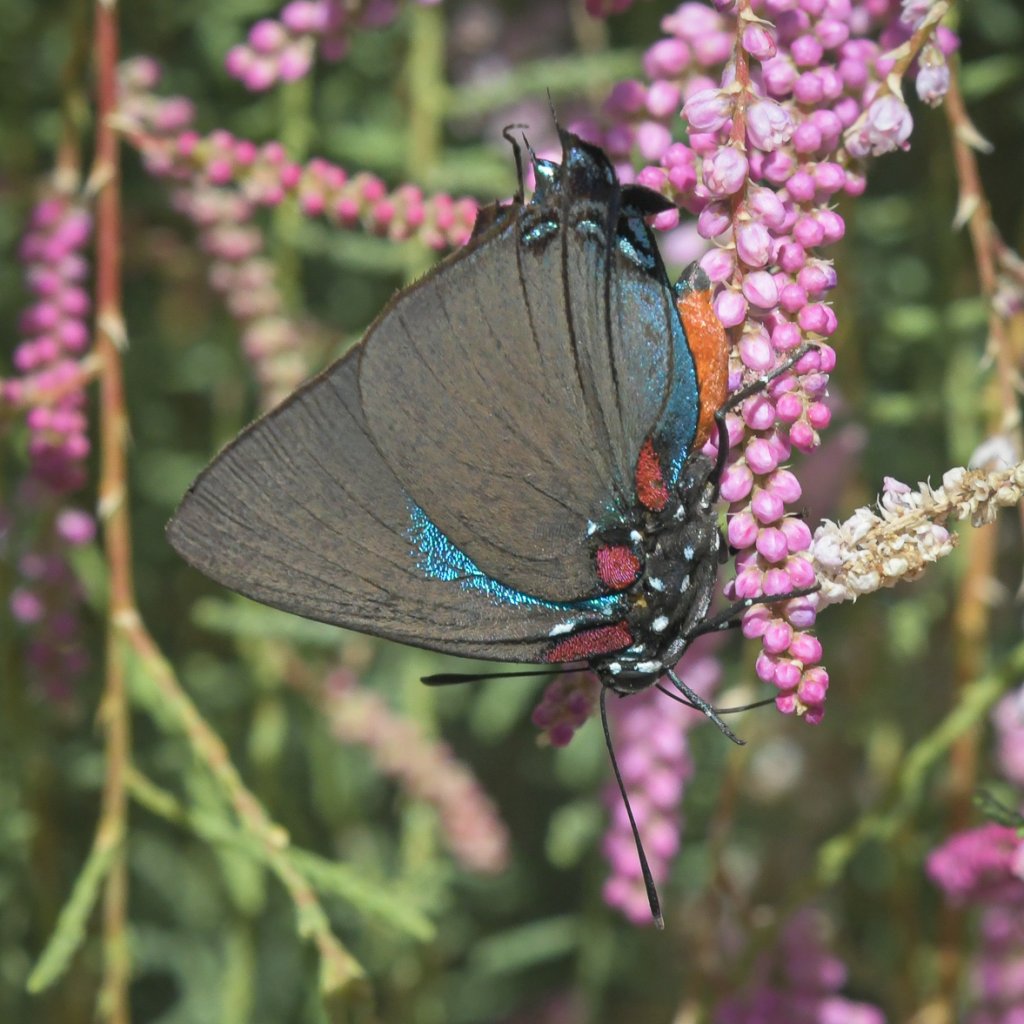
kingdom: Animalia
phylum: Arthropoda
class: Insecta
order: Lepidoptera
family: Lycaenidae
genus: Atlides
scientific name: Atlides halesus
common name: Great Purple Hairstreak
